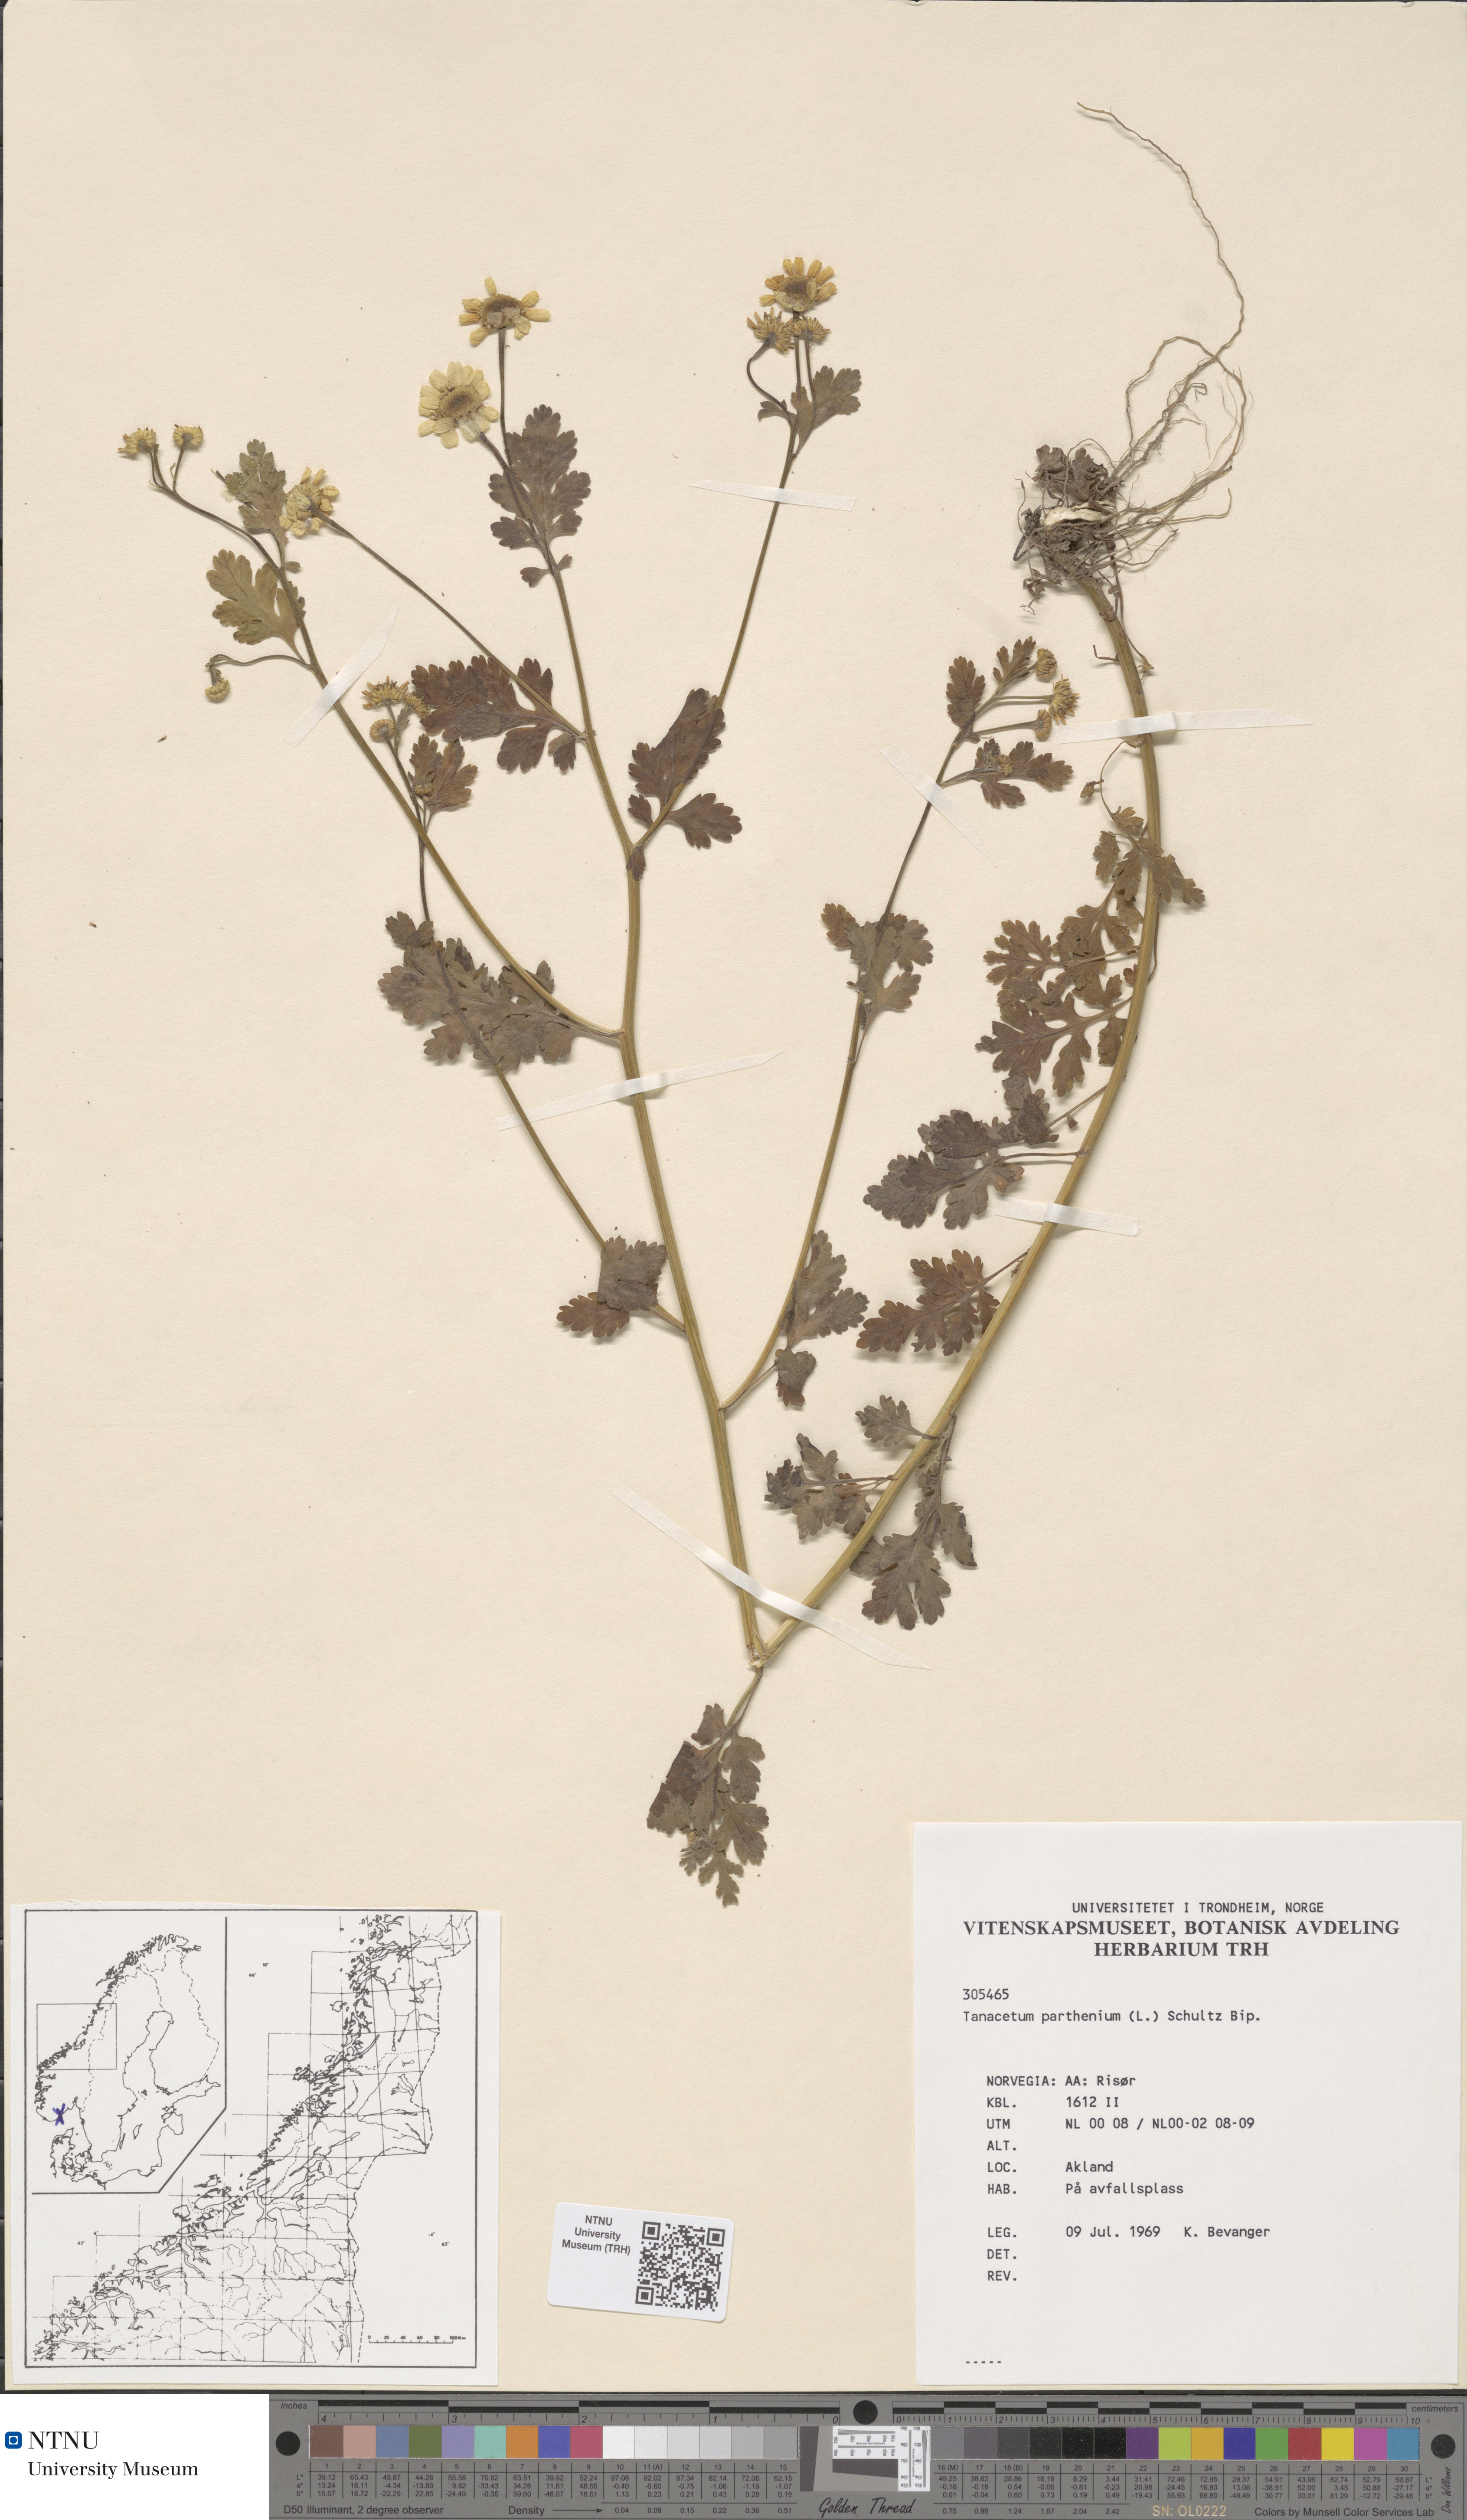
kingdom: Plantae
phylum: Tracheophyta
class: Magnoliopsida
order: Asterales
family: Asteraceae
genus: Tanacetum
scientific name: Tanacetum parthenium
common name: Feverfew
